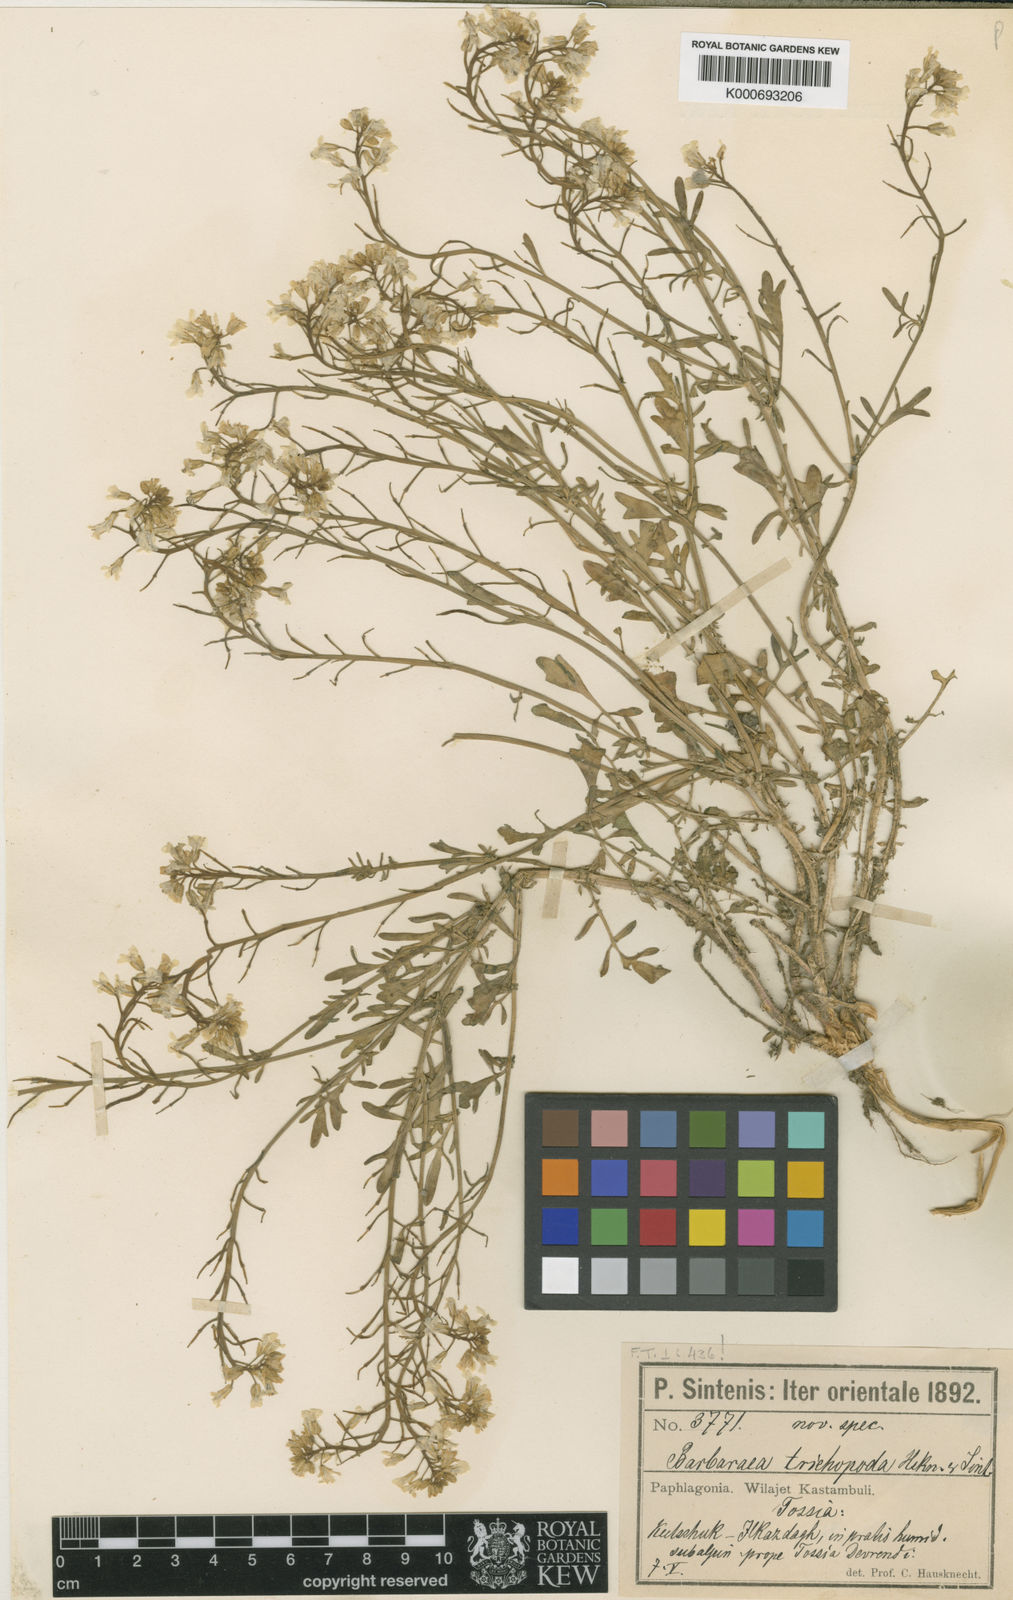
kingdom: Plantae
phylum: Tracheophyta
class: Magnoliopsida
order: Brassicales
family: Brassicaceae
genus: Barbarea
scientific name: Barbarea trichopoda
